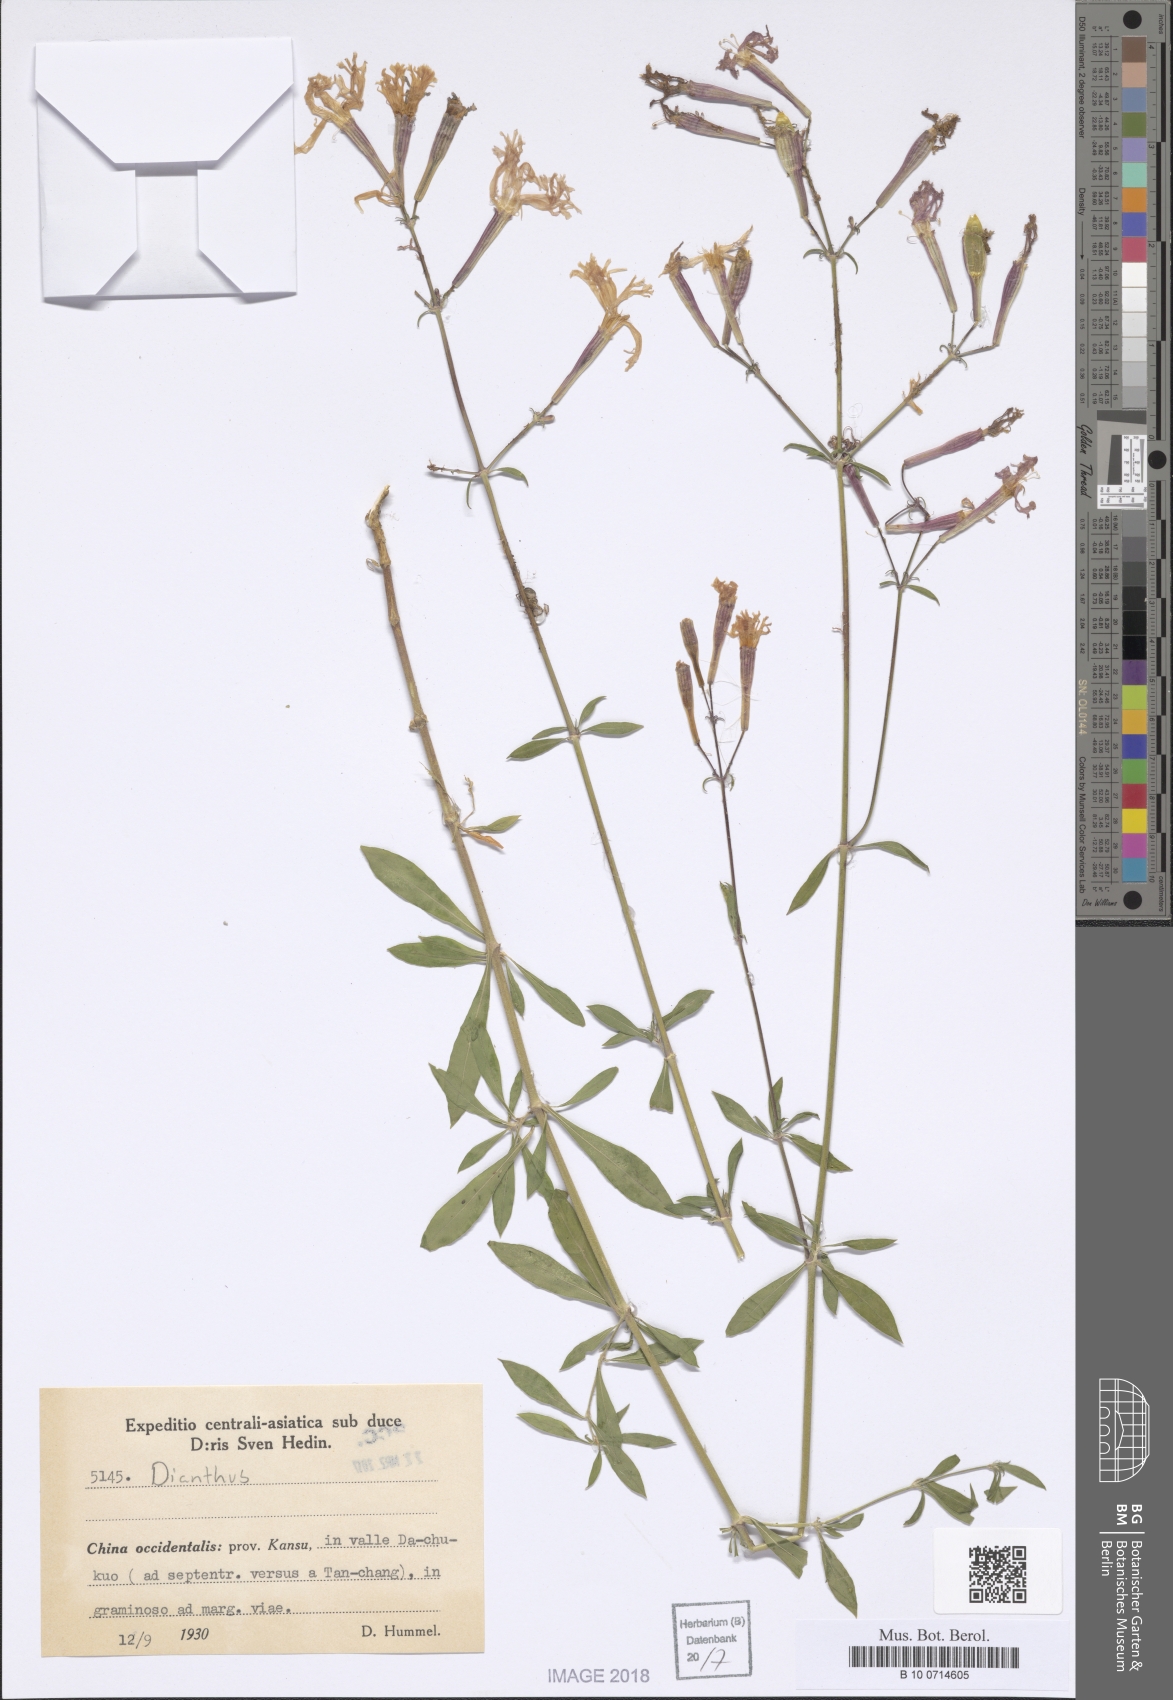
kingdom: Plantae
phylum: Tracheophyta
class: Magnoliopsida
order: Caryophyllales
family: Caryophyllaceae
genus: Dianthus
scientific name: Dianthus
